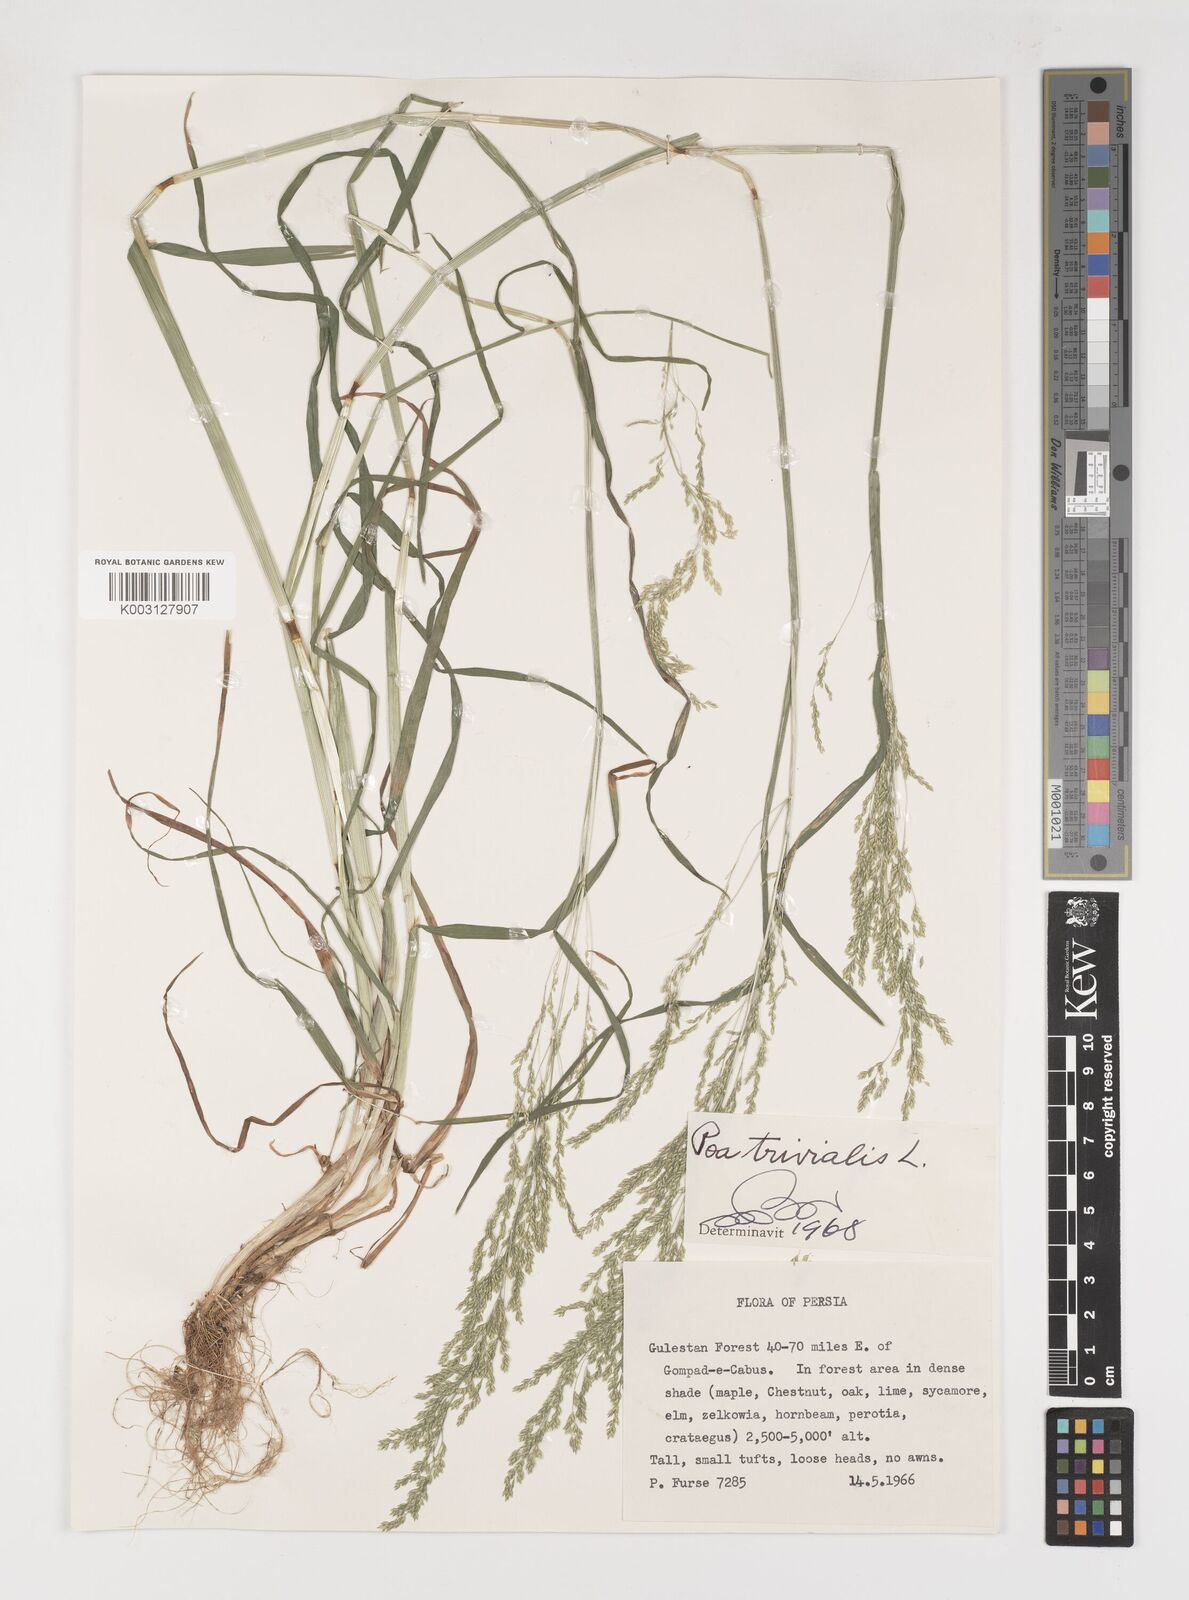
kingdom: Plantae
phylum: Tracheophyta
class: Liliopsida
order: Poales
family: Poaceae
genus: Poa
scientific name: Poa trivialis
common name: Rough bluegrass
